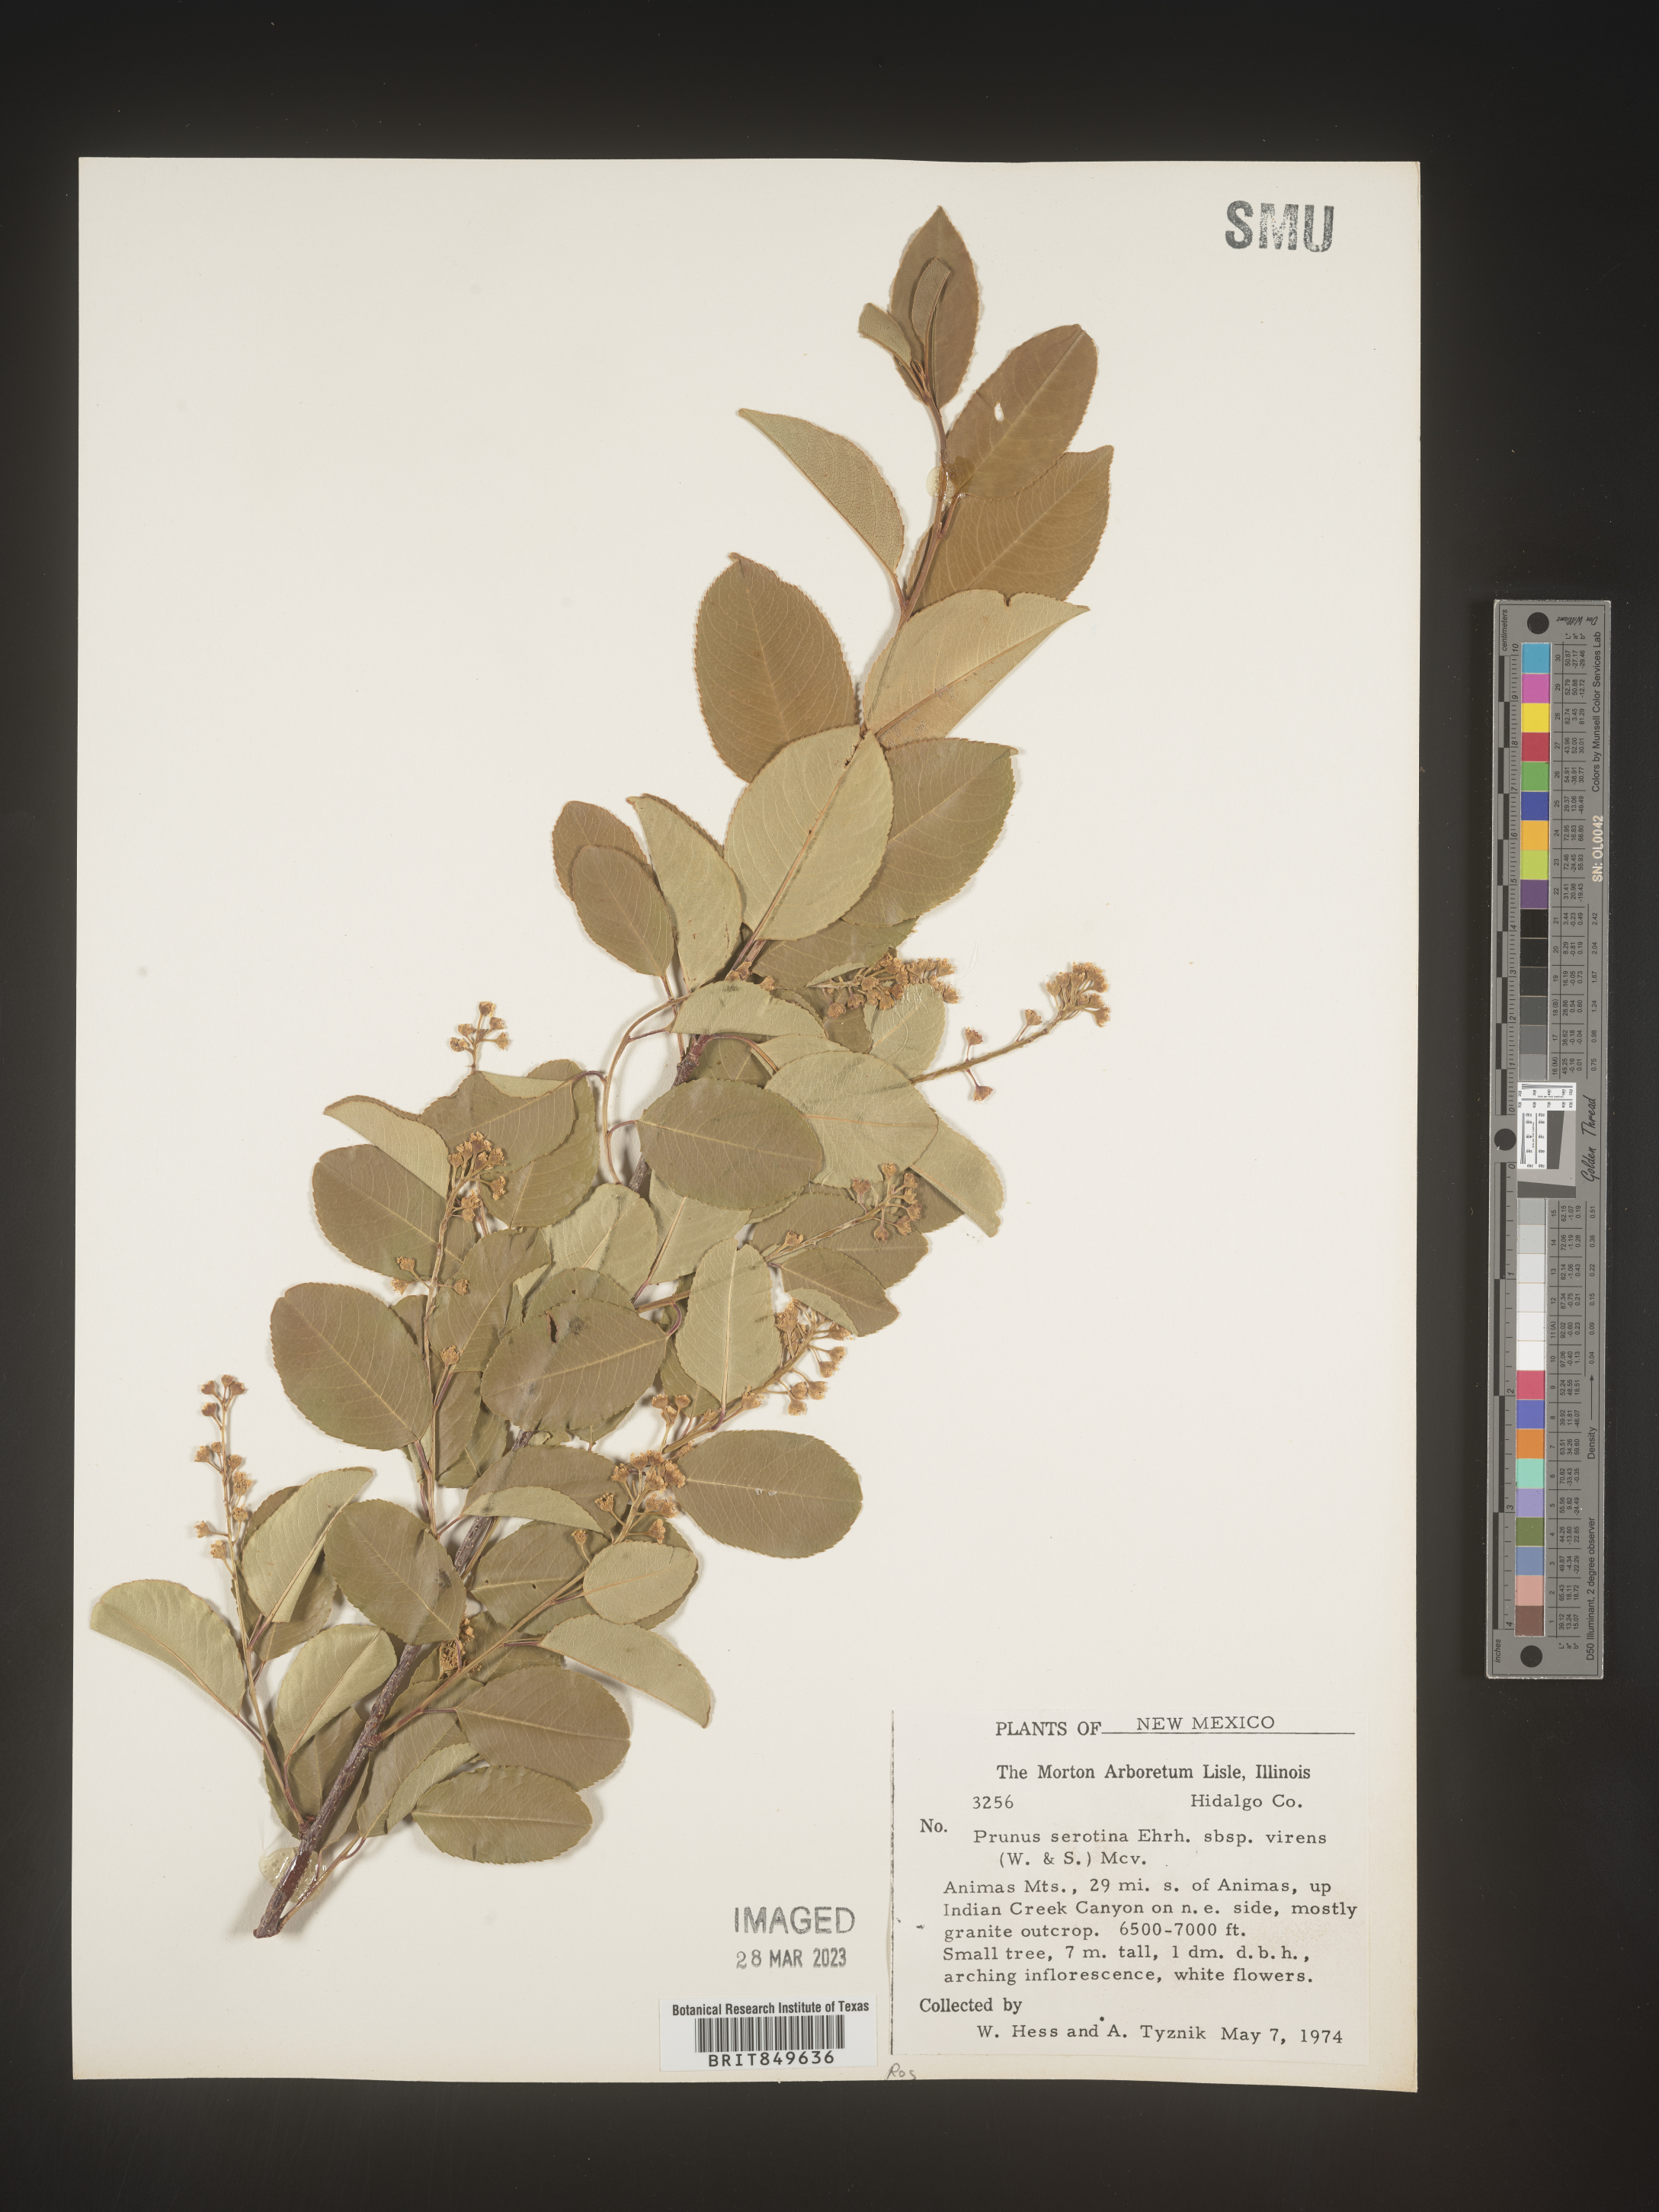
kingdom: Plantae
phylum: Tracheophyta
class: Magnoliopsida
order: Rosales
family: Rosaceae
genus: Prunus
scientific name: Prunus serotina
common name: Black cherry
